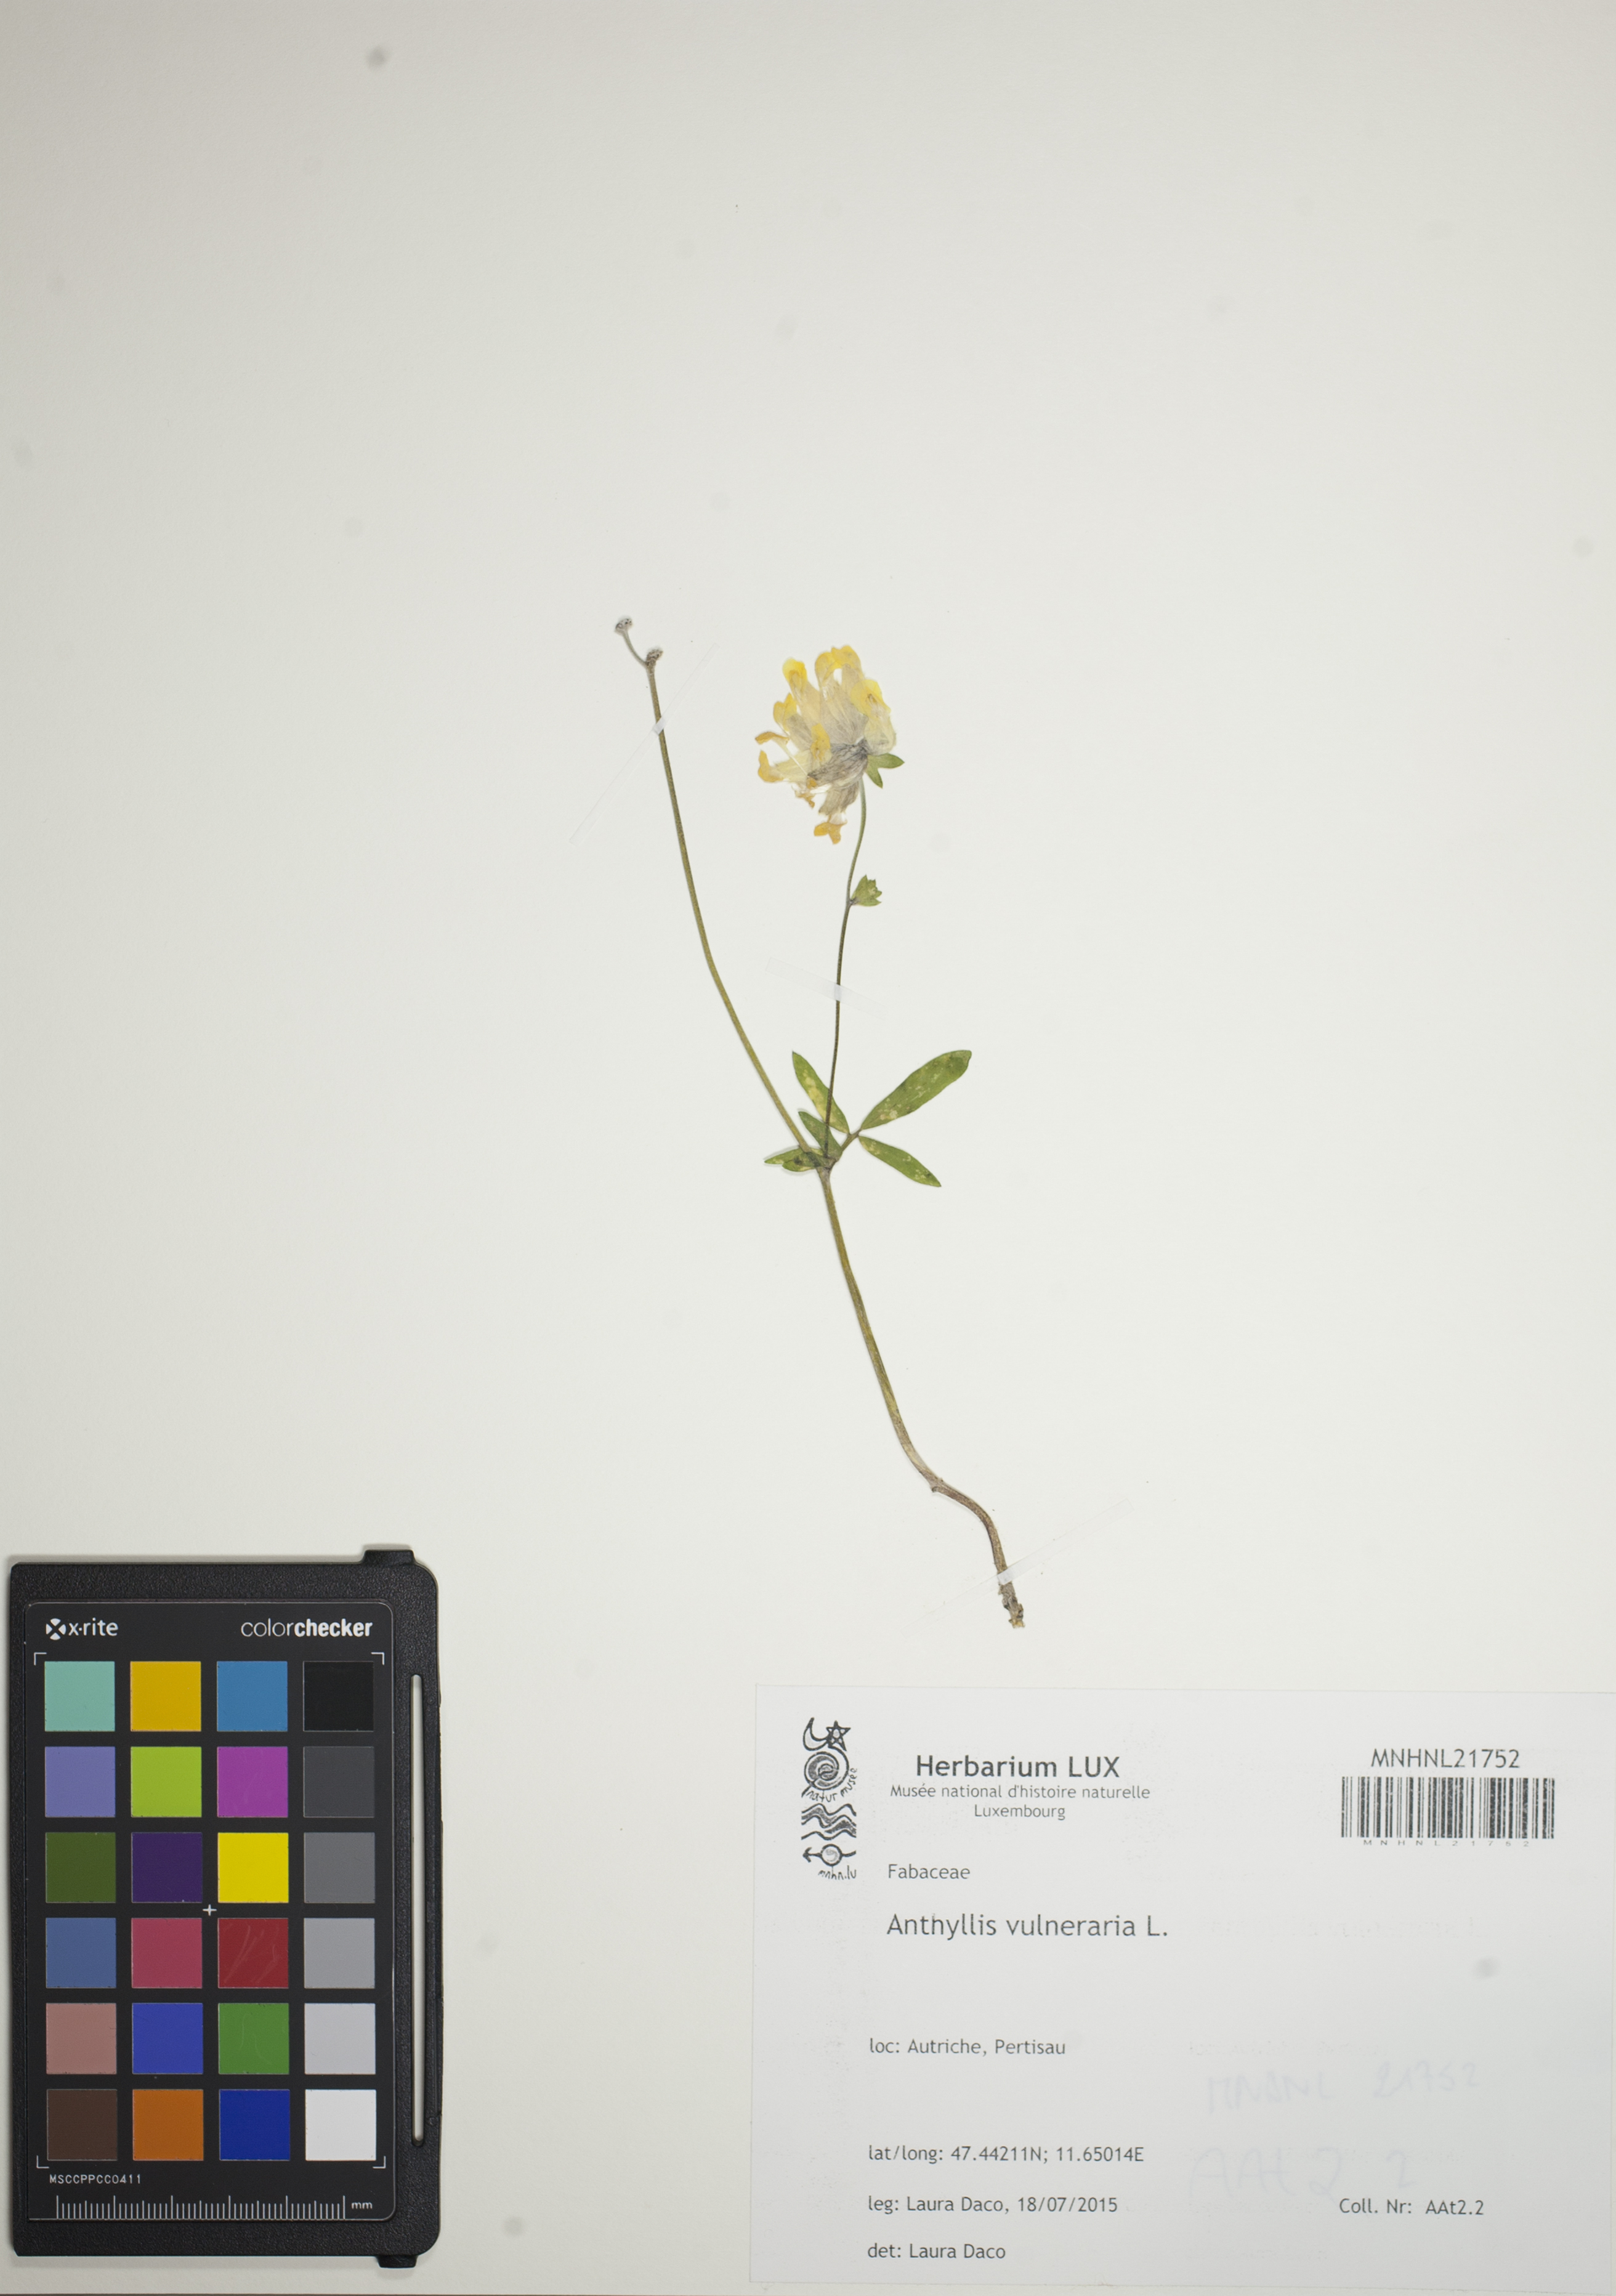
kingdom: Plantae
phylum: Tracheophyta
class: Magnoliopsida
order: Fabales
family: Fabaceae
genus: Anthyllis
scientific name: Anthyllis vulneraria
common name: Kidney vetch
